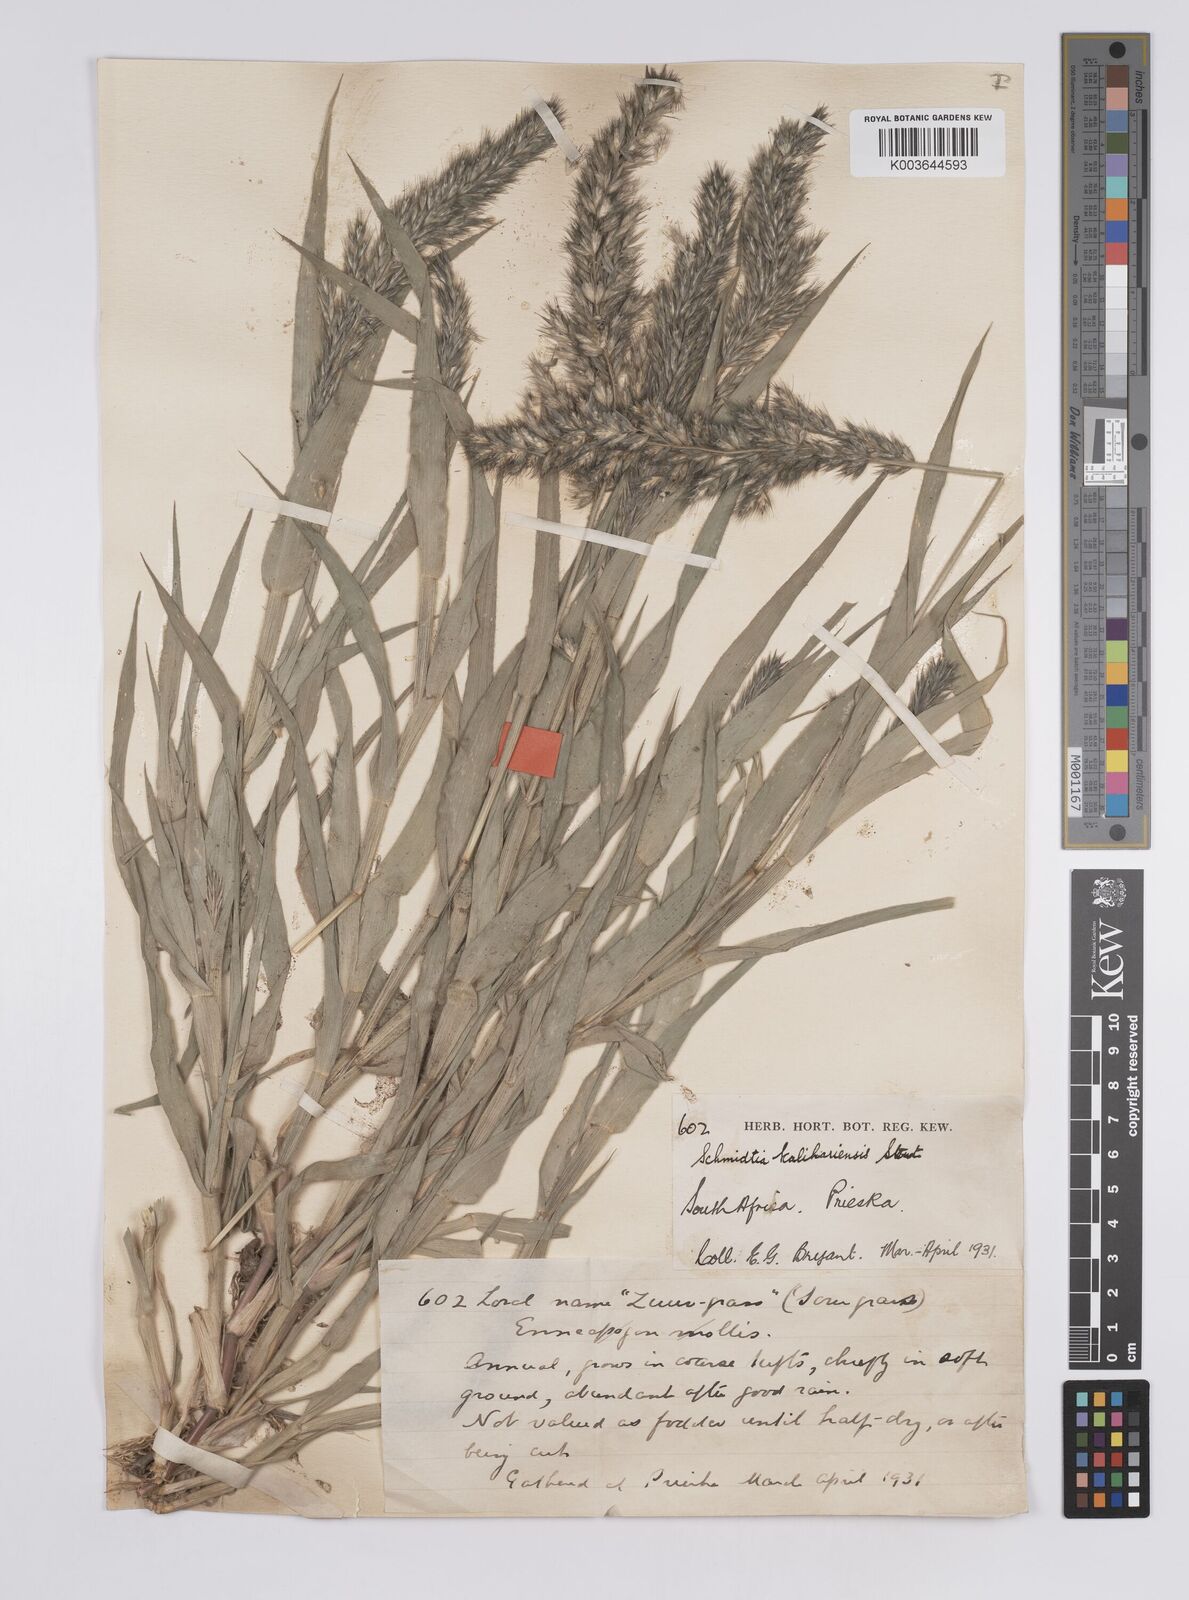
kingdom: Plantae
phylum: Tracheophyta
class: Liliopsida
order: Poales
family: Poaceae
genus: Schmidtia
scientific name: Schmidtia kalahariensis
